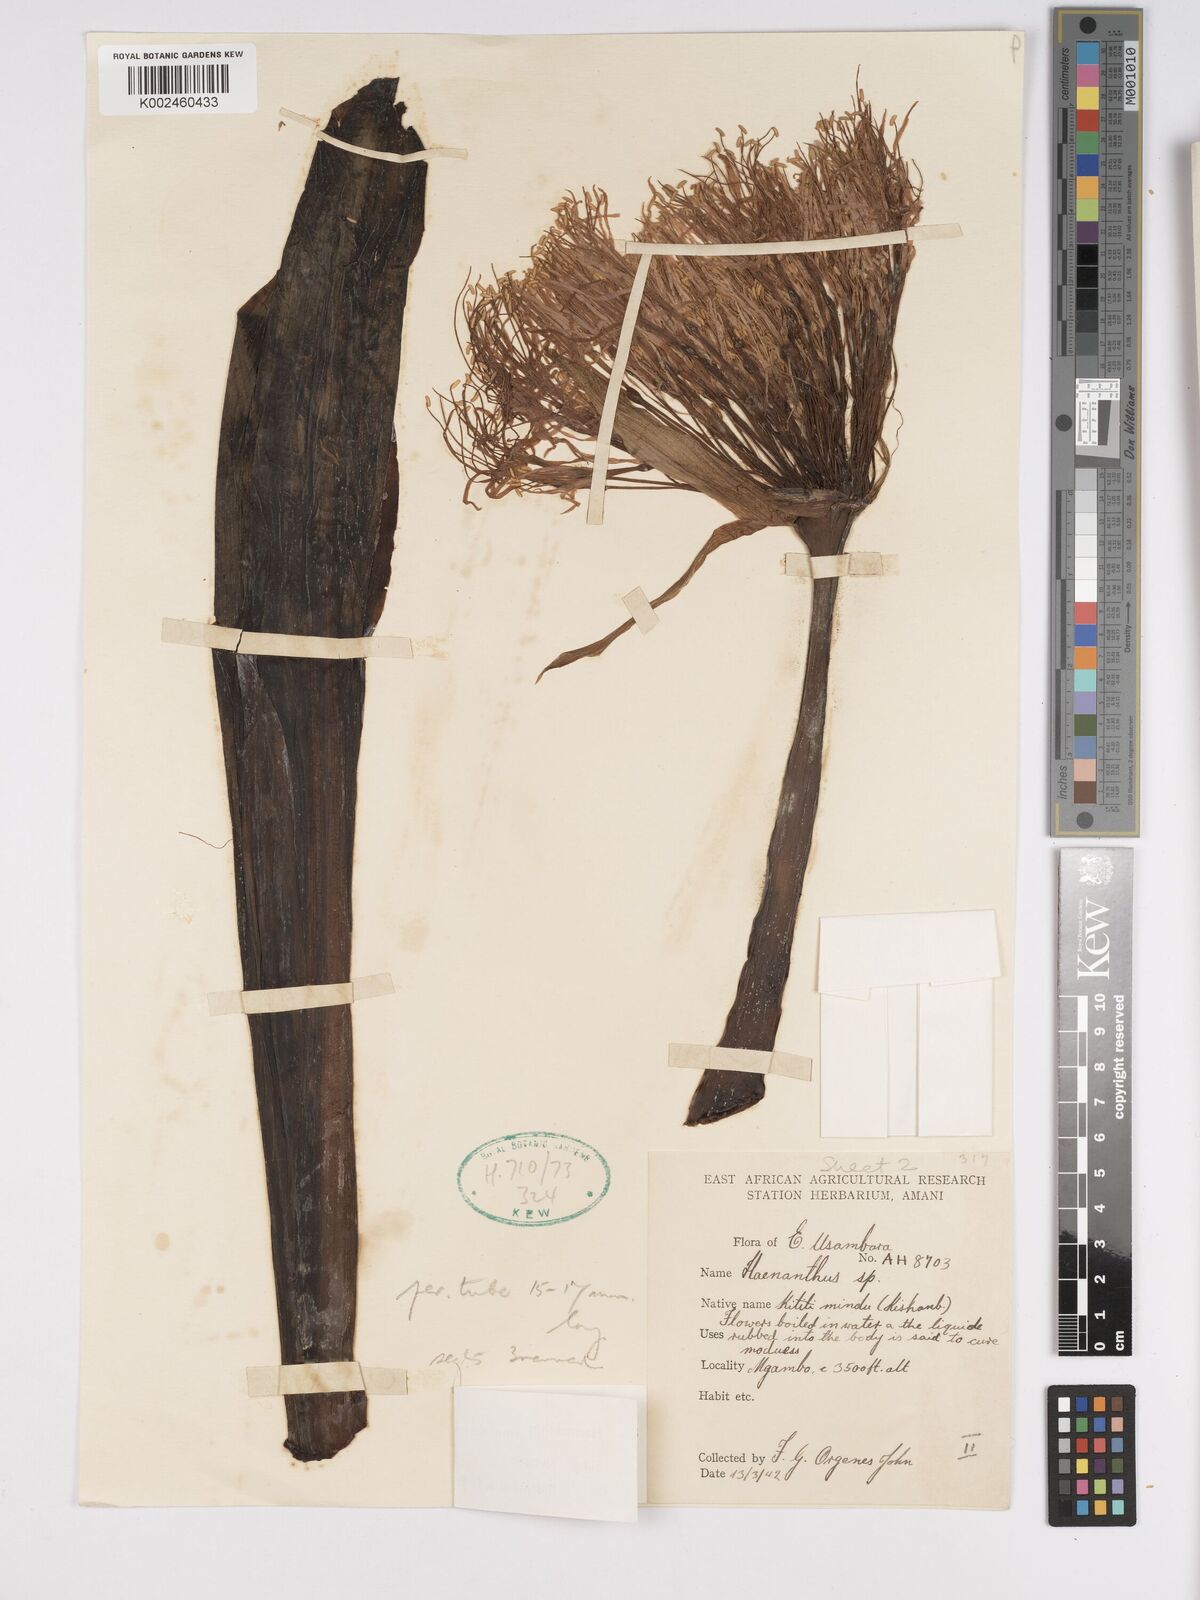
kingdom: Plantae
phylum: Tracheophyta
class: Liliopsida
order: Asparagales
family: Amaryllidaceae
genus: Scadoxus
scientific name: Scadoxus multiflorus
